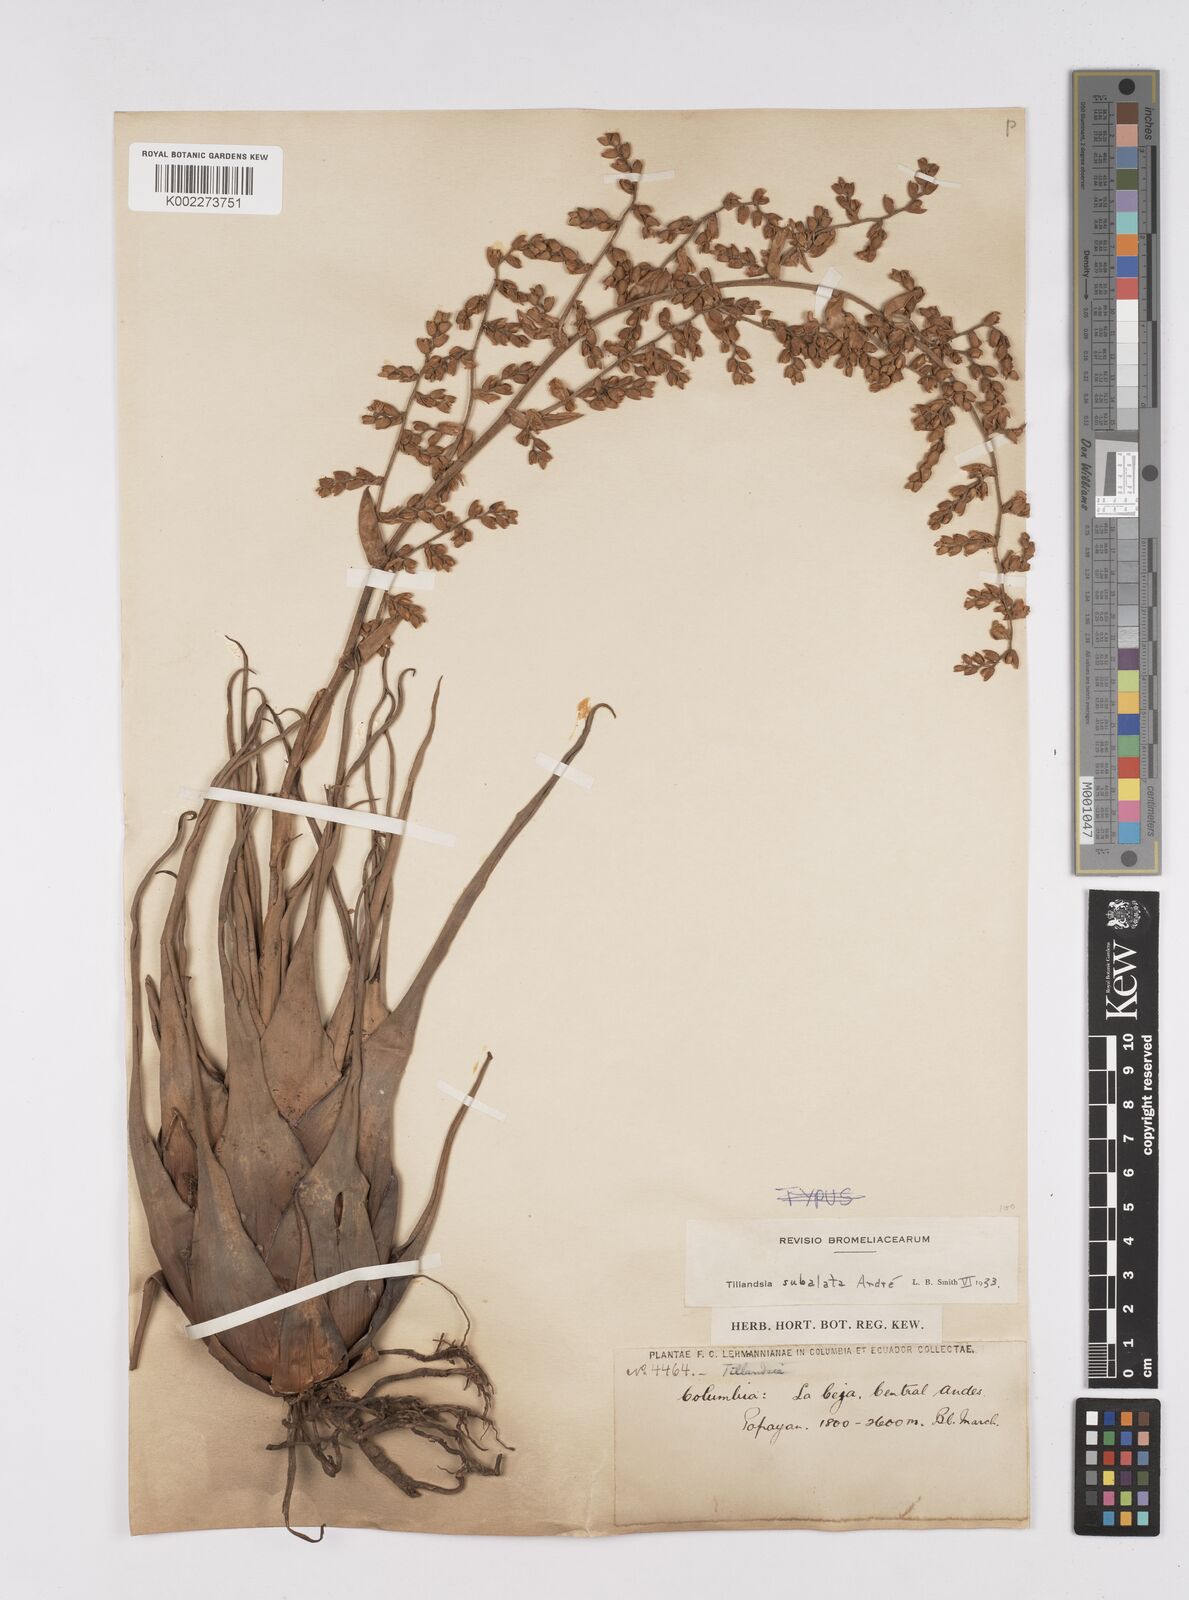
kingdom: Plantae
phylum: Tracheophyta
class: Liliopsida
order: Poales
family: Bromeliaceae
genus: Racinaea
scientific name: Racinaea subalata
